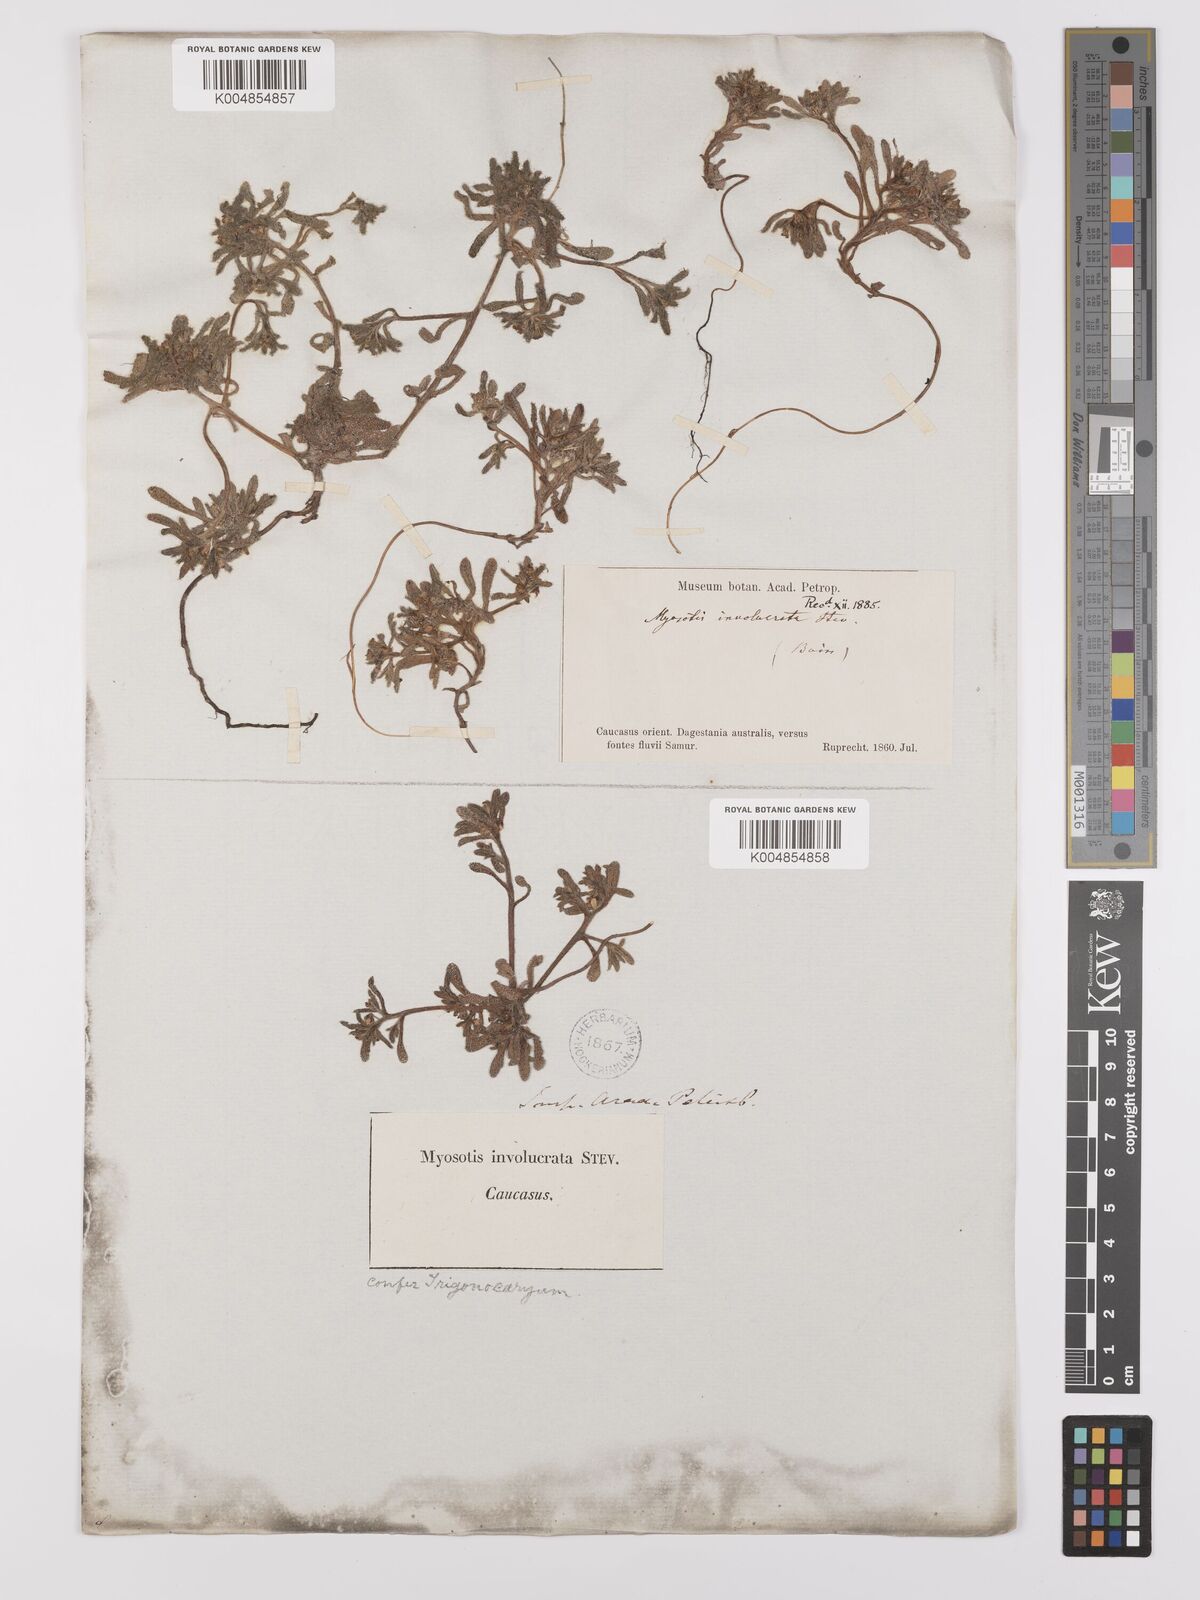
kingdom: Plantae
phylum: Tracheophyta
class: Magnoliopsida
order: Boraginales
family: Boraginaceae
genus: Myosotis
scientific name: Myosotis involucrata
